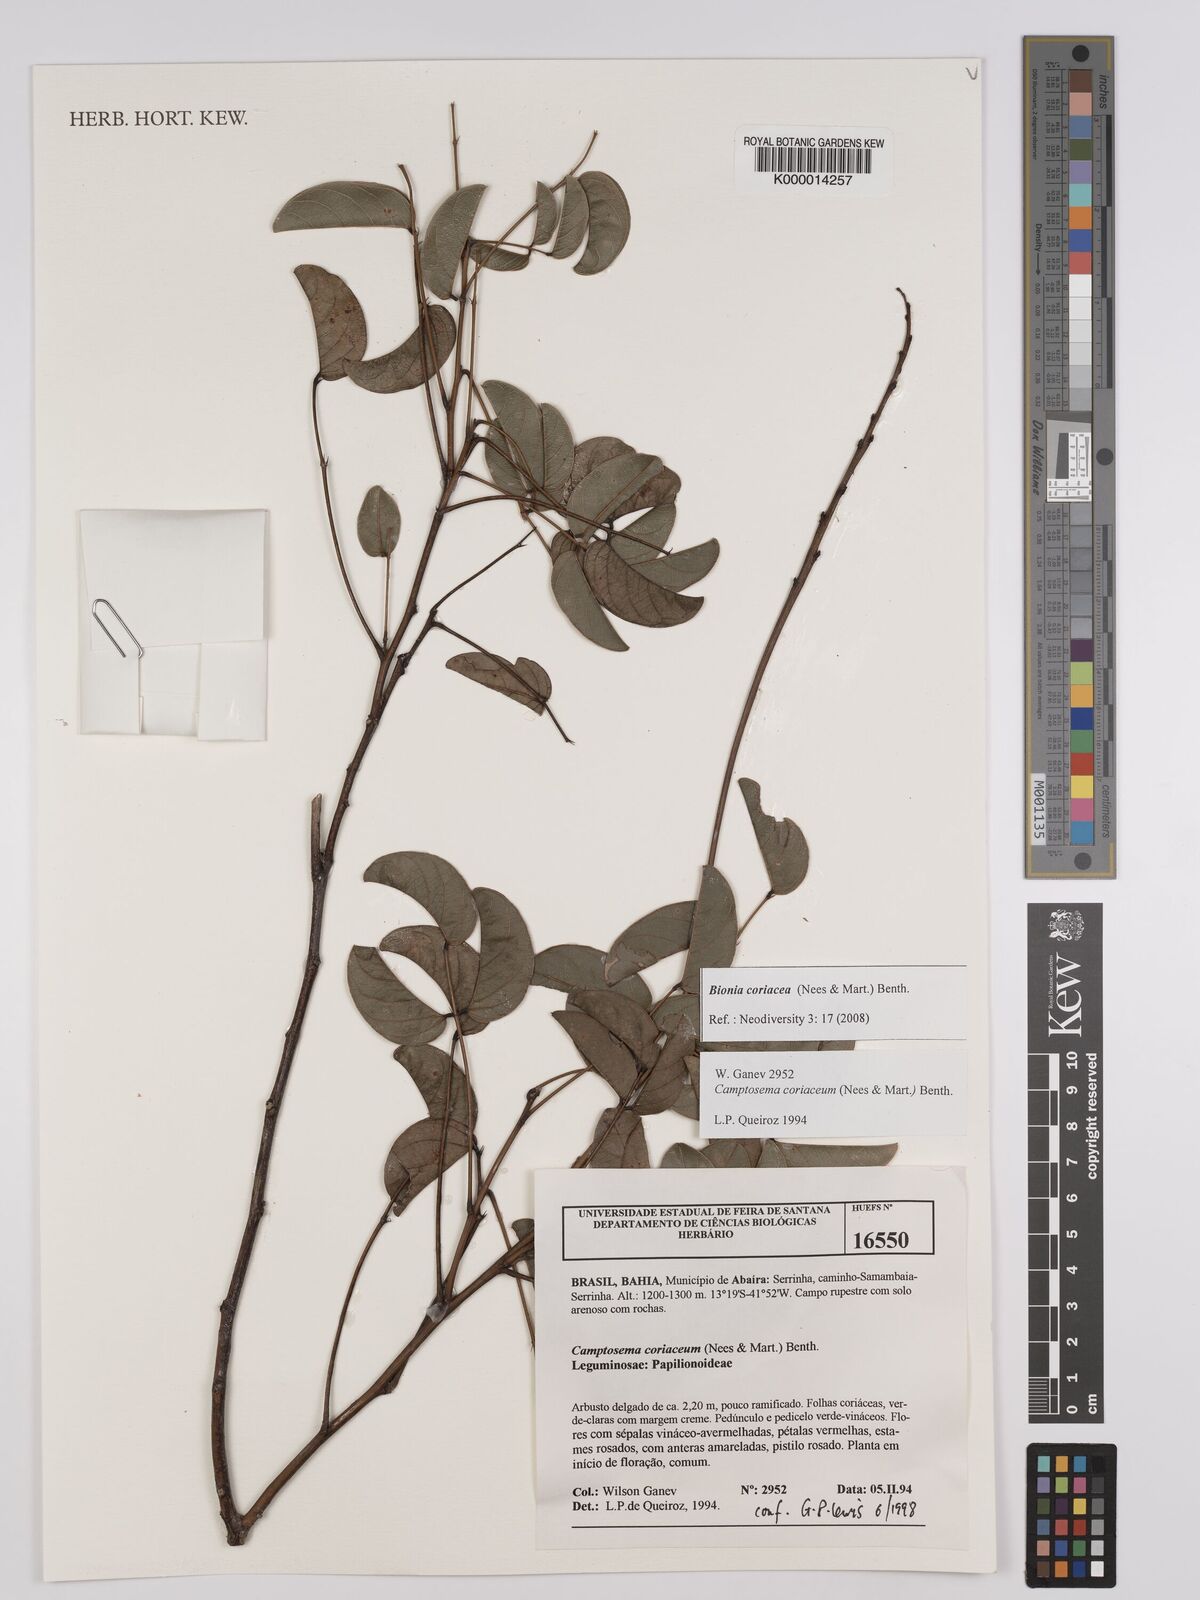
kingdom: Plantae
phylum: Tracheophyta
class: Magnoliopsida
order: Fabales
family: Fabaceae
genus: Camptosema
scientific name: Camptosema coriaceum
